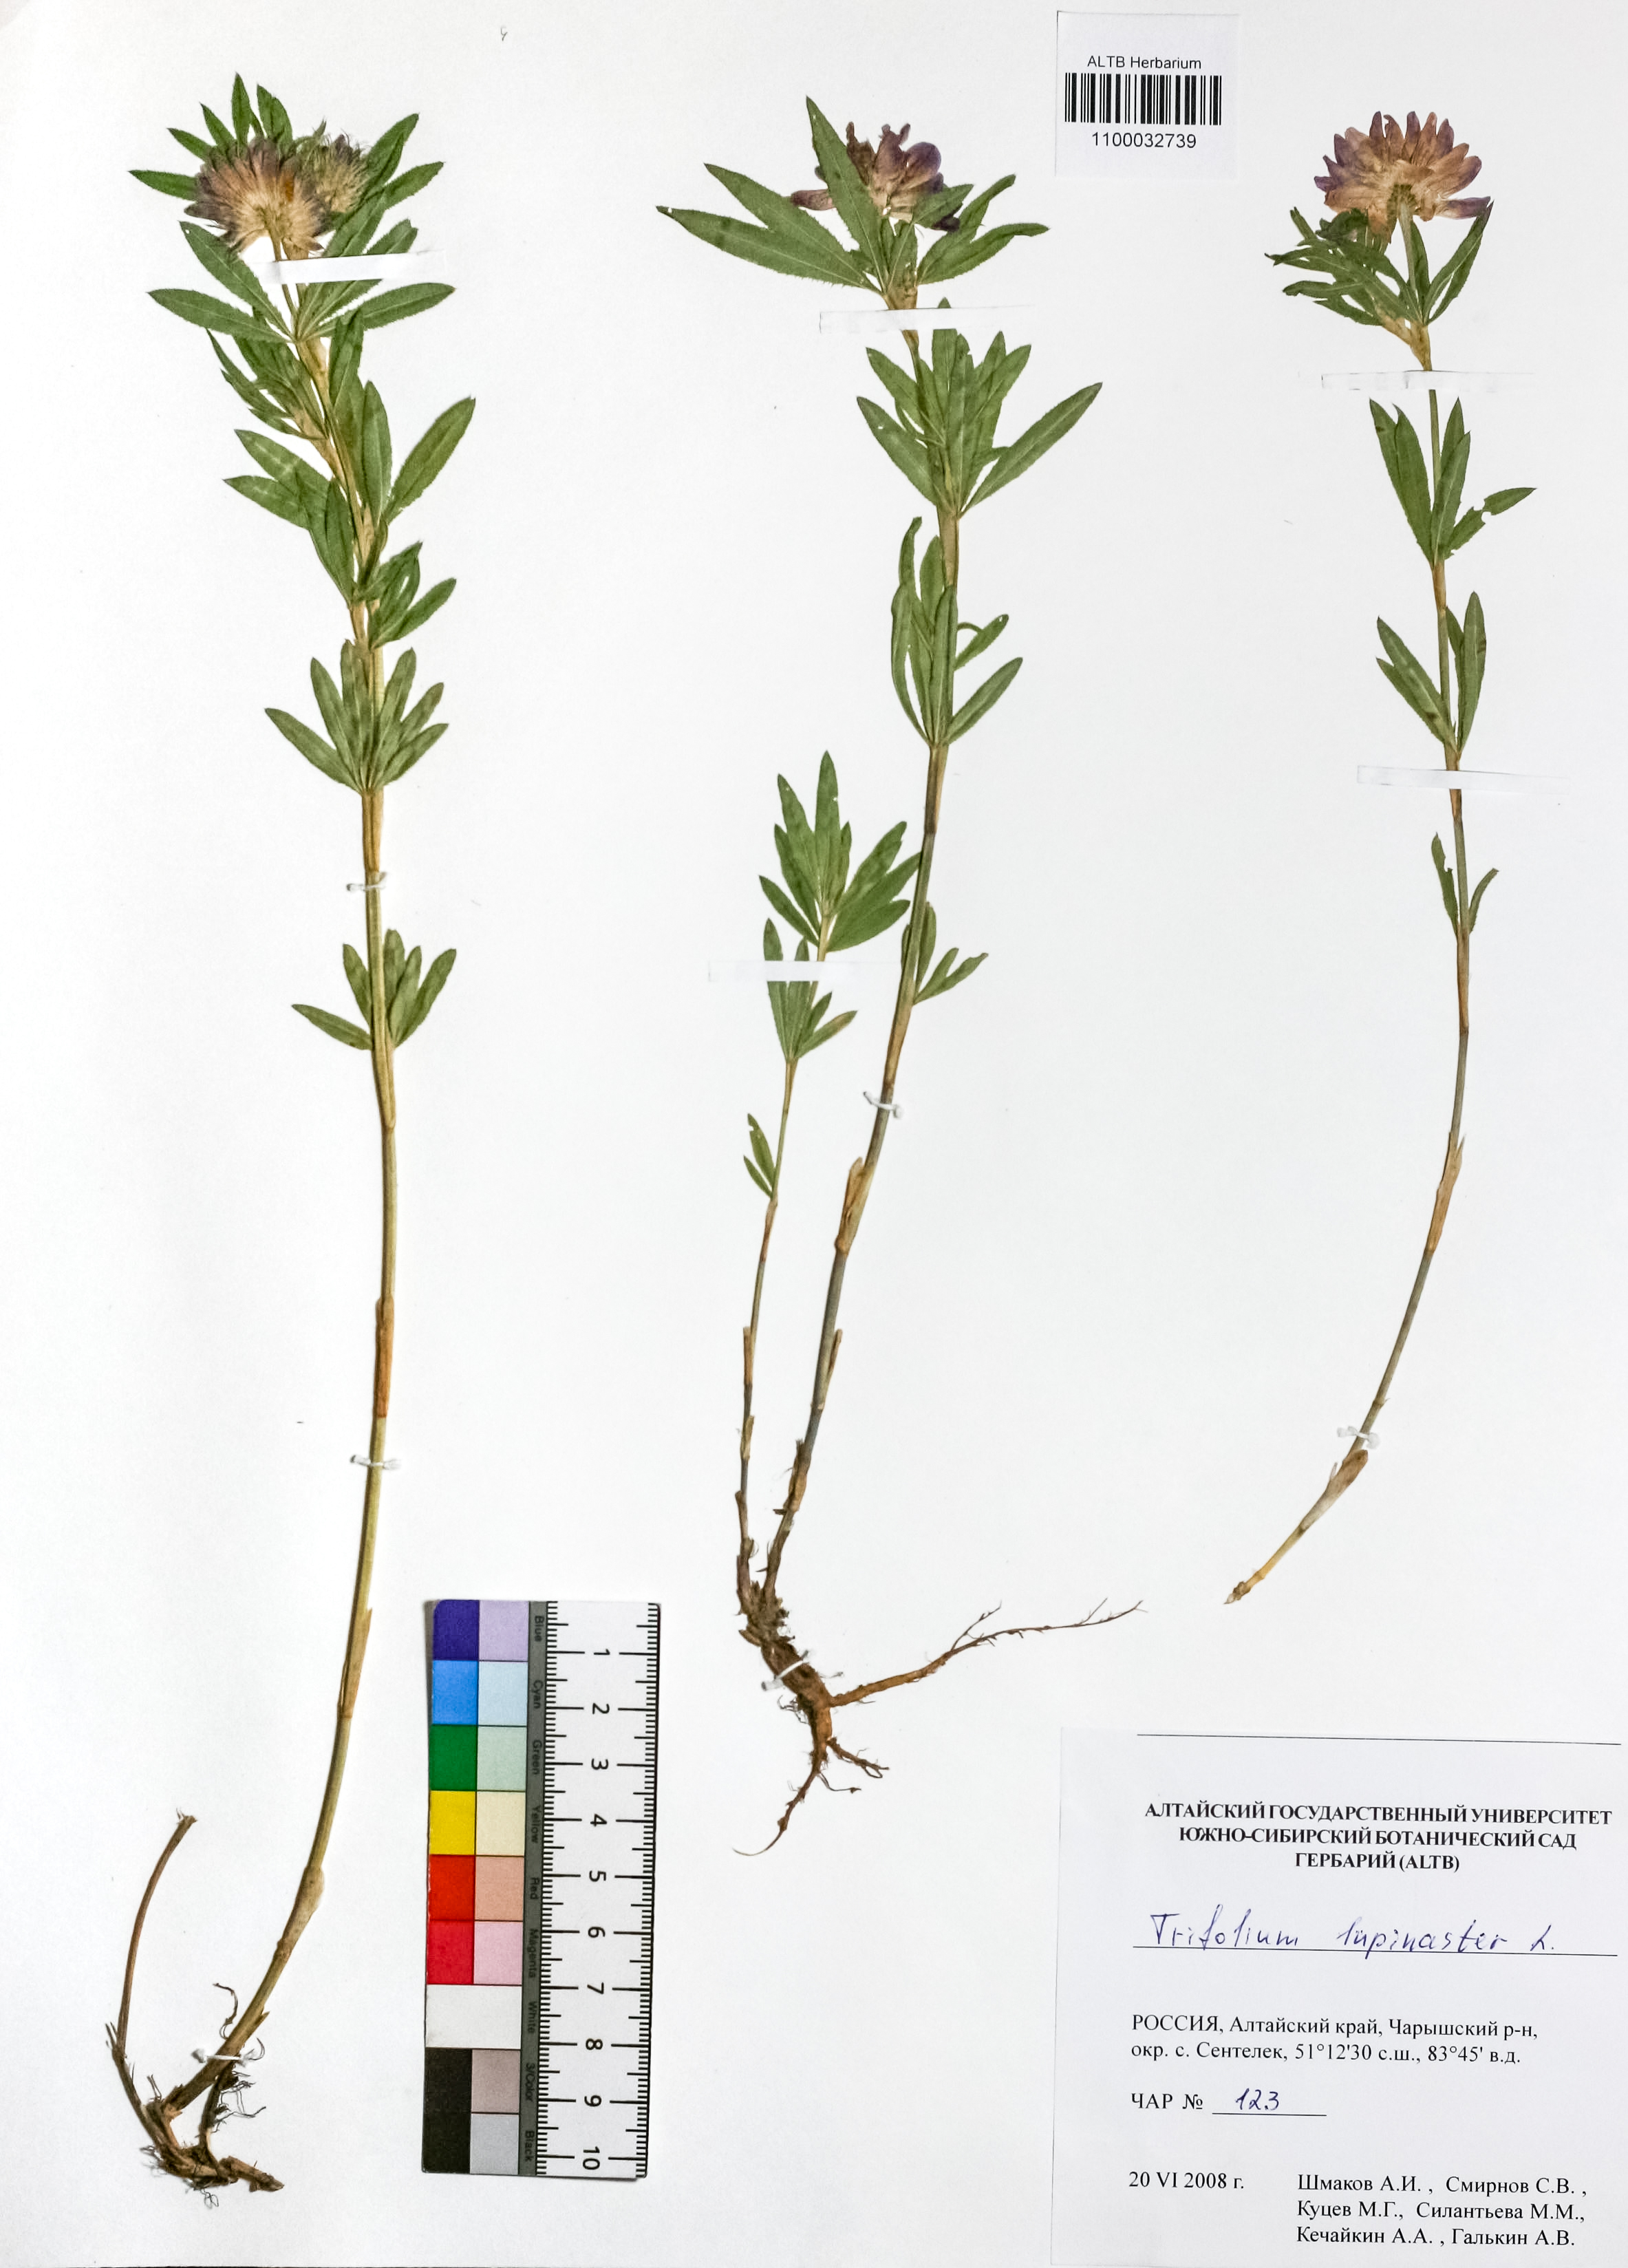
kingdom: Plantae
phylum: Tracheophyta
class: Magnoliopsida
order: Fabales
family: Fabaceae
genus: Trifolium
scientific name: Trifolium lupinaster
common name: Lupine clover
